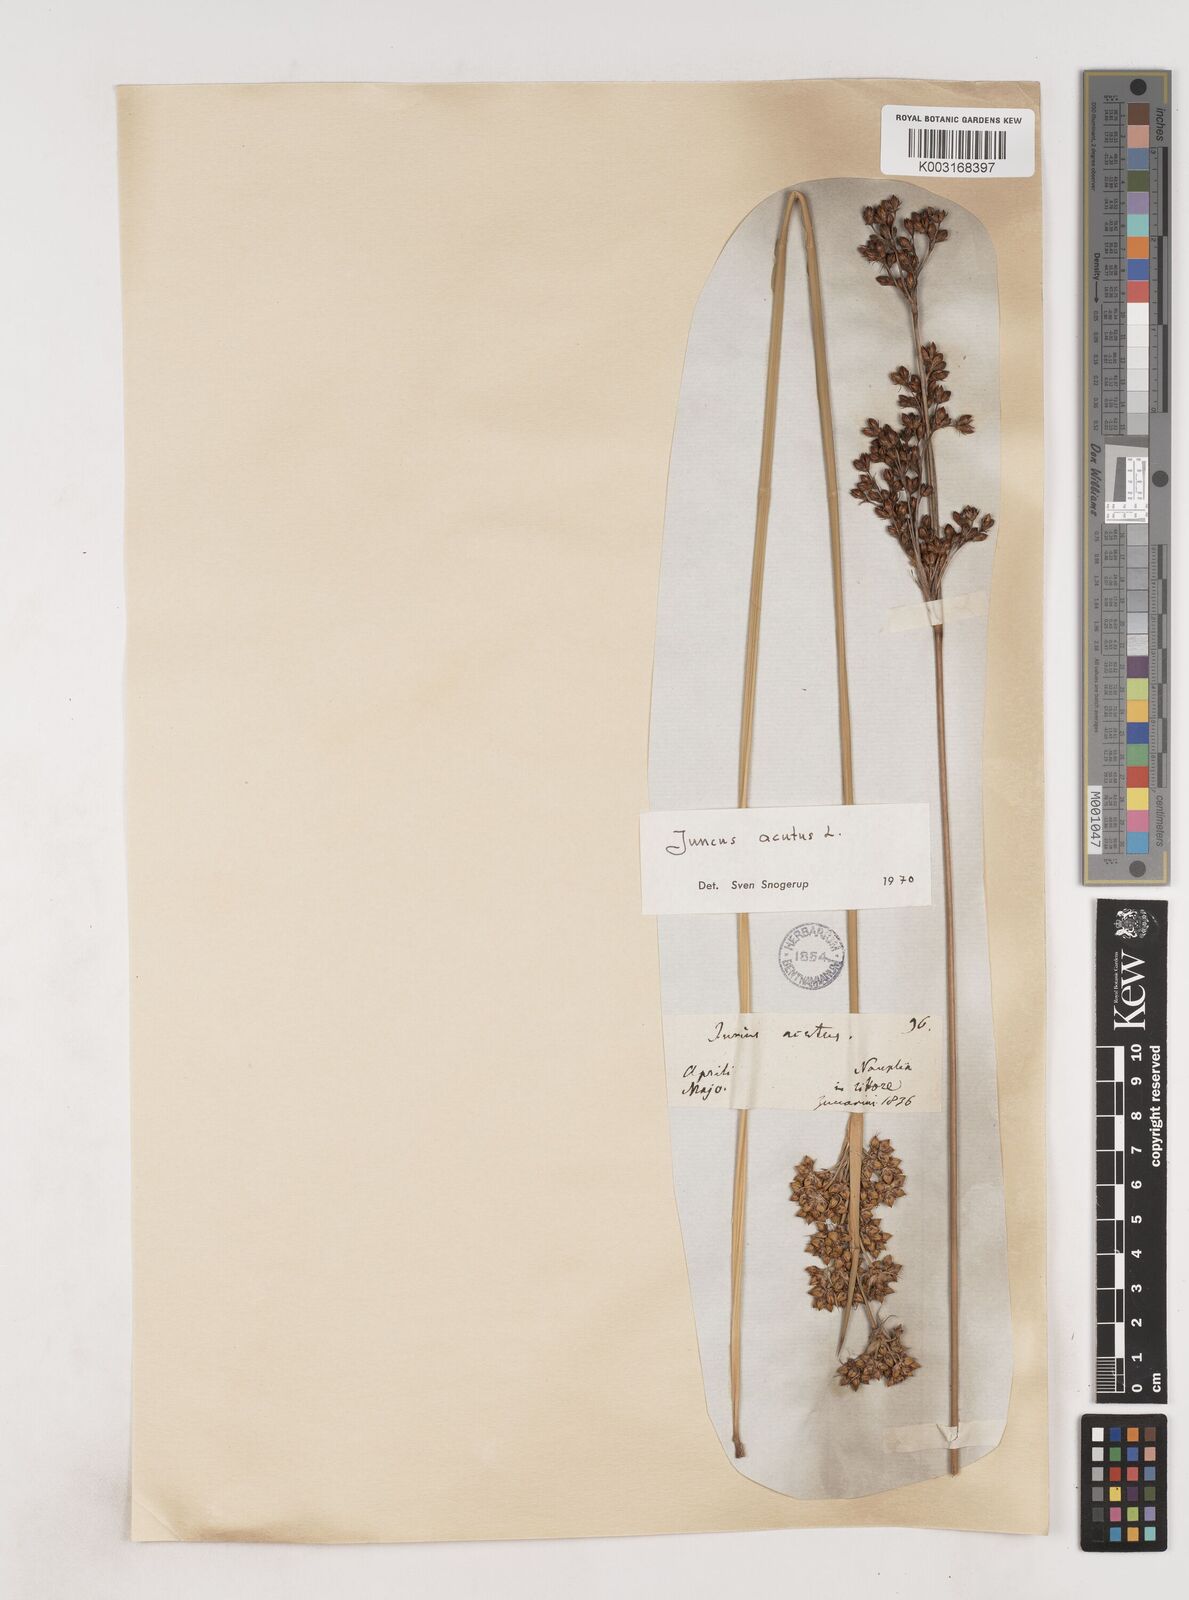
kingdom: Plantae
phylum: Tracheophyta
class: Liliopsida
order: Poales
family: Juncaceae
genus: Juncus
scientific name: Juncus acutus
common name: Sharp rush
